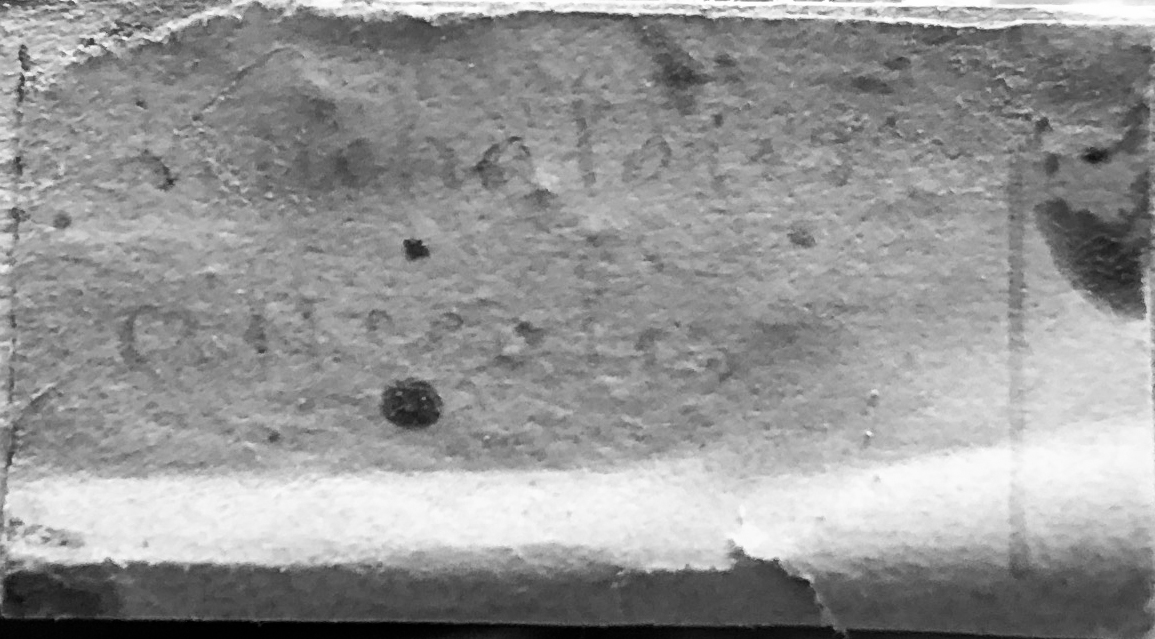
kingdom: Animalia
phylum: Chordata
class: Aves
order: Apodiformes
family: Trochilidae
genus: Leucochloris
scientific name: Leucochloris albicollis
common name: White-throated hummingbird
